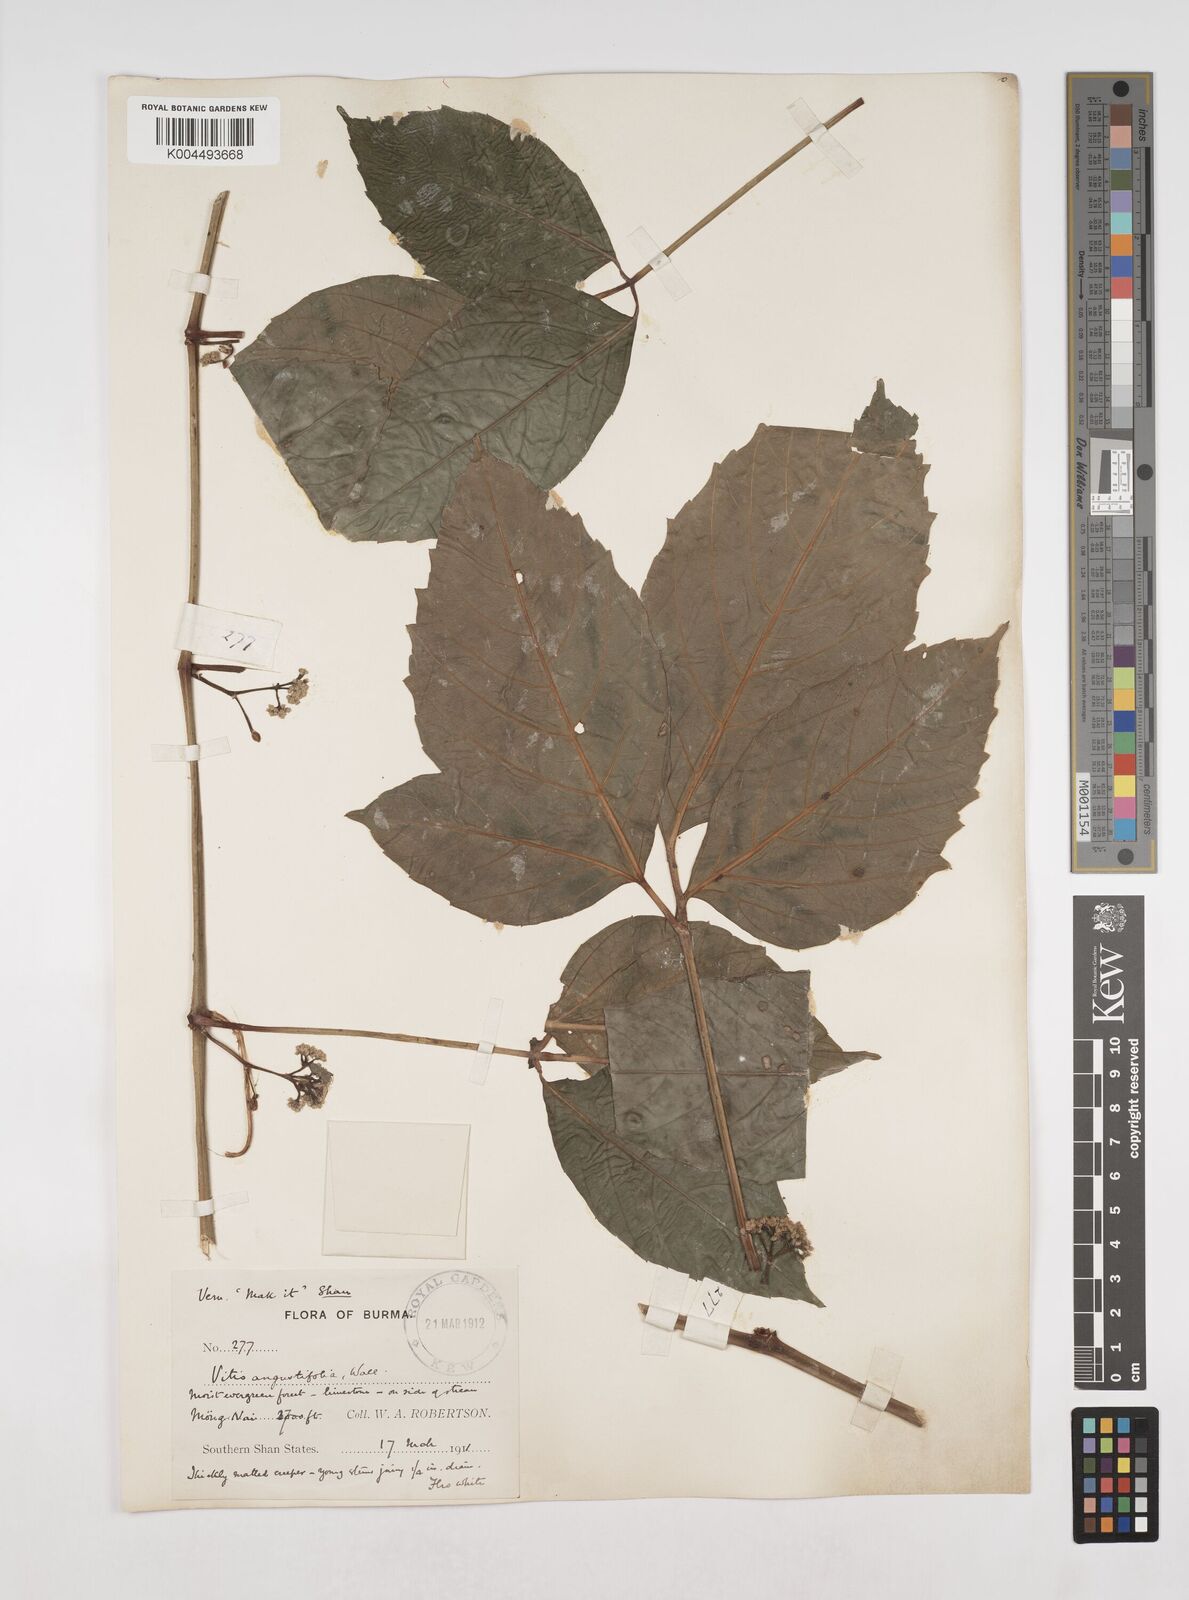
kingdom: Plantae
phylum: Tracheophyta
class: Magnoliopsida
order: Vitales
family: Vitaceae
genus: Tetrastigma
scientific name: Tetrastigma subsuberosum
